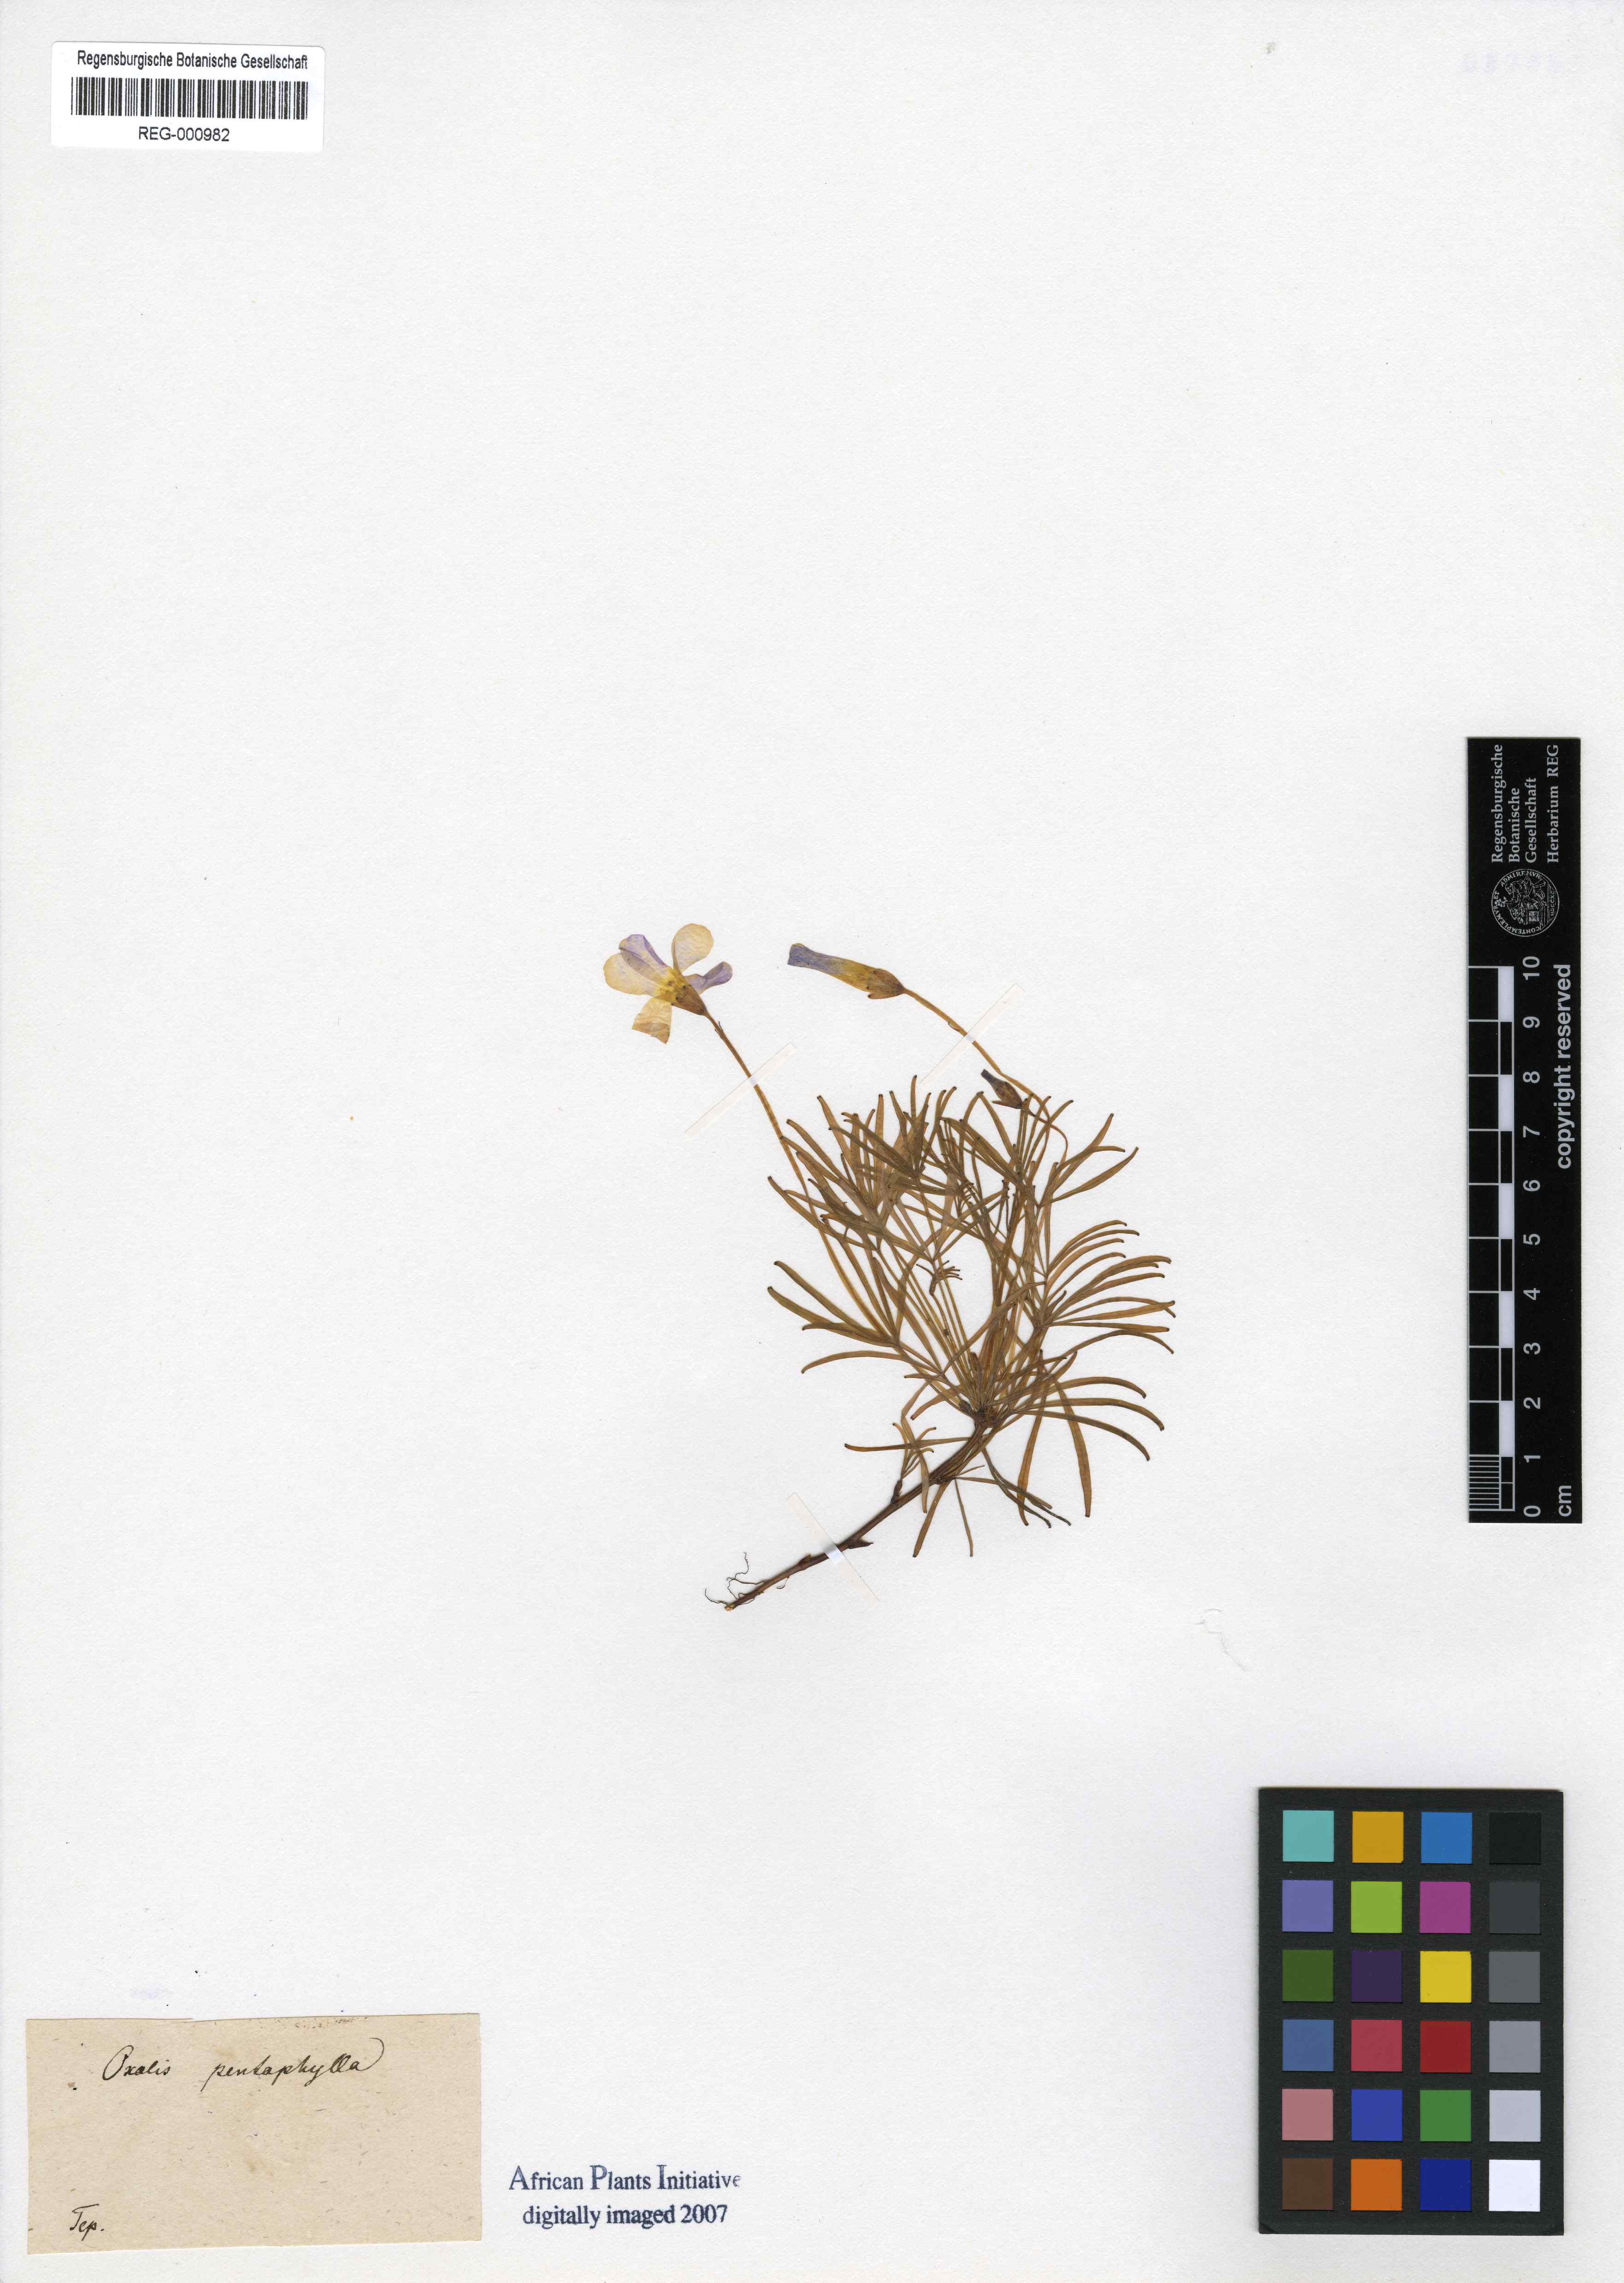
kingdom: Plantae
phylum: Tracheophyta
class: Magnoliopsida
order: Oxalidales
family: Oxalidaceae
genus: Oxalis
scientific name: Oxalis polyphylla
